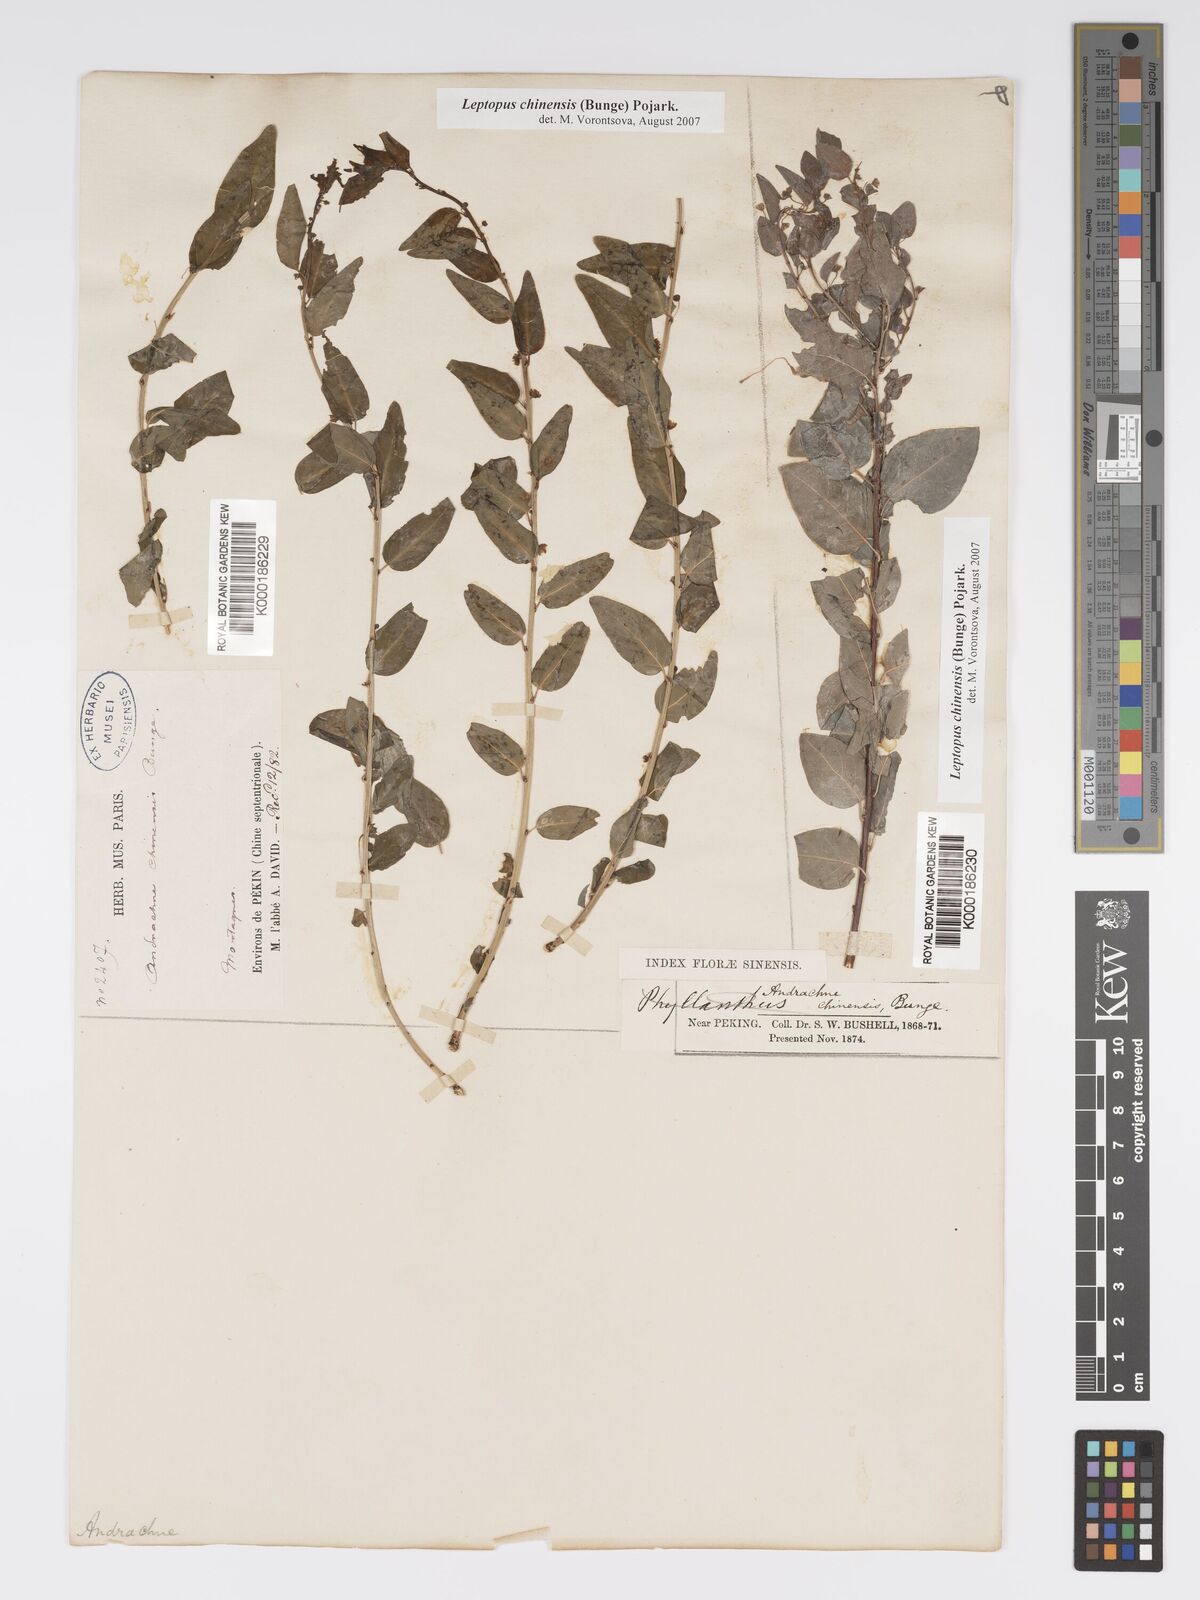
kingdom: Plantae
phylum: Tracheophyta
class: Magnoliopsida
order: Malpighiales
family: Phyllanthaceae
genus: Leptopus
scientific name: Leptopus chinensis
